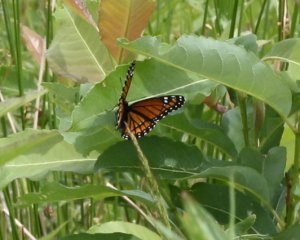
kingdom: Animalia
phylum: Arthropoda
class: Insecta
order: Lepidoptera
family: Nymphalidae
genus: Limenitis
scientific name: Limenitis archippus
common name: Viceroy
